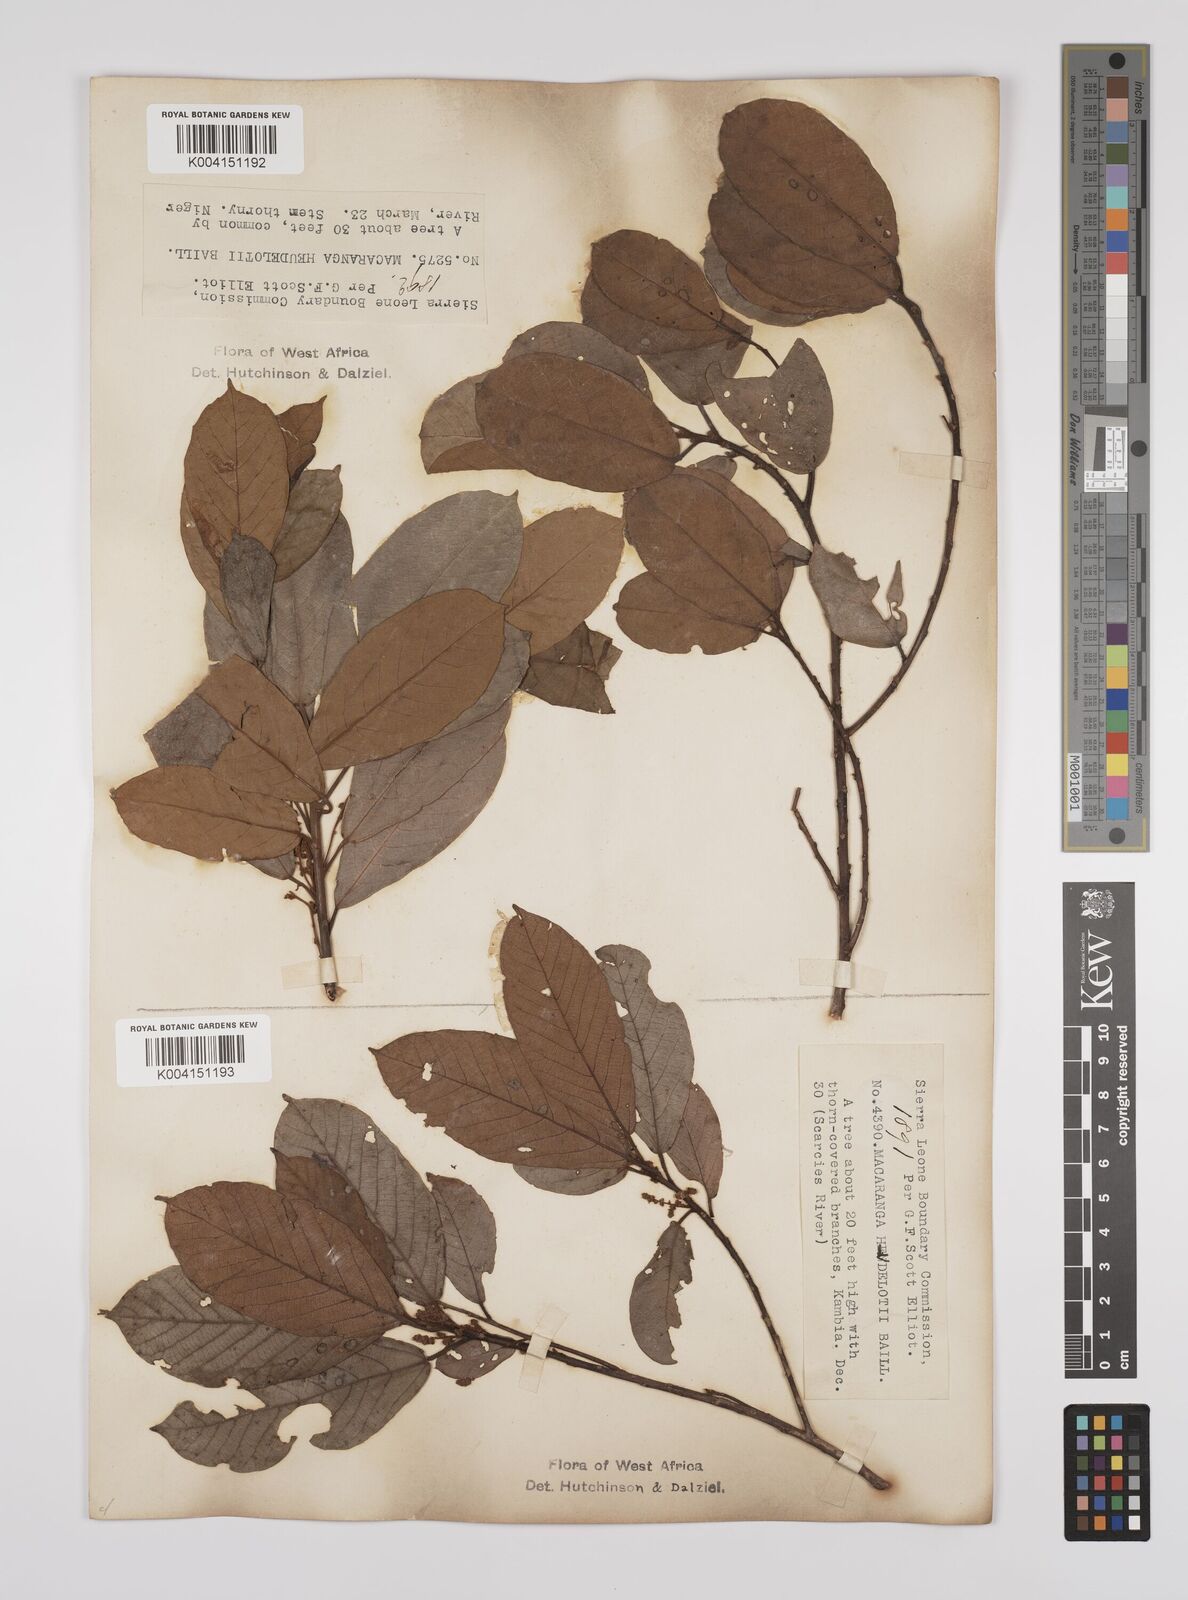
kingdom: Plantae
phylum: Tracheophyta
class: Magnoliopsida
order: Malpighiales
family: Euphorbiaceae
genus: Macaranga
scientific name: Macaranga heudelotii
